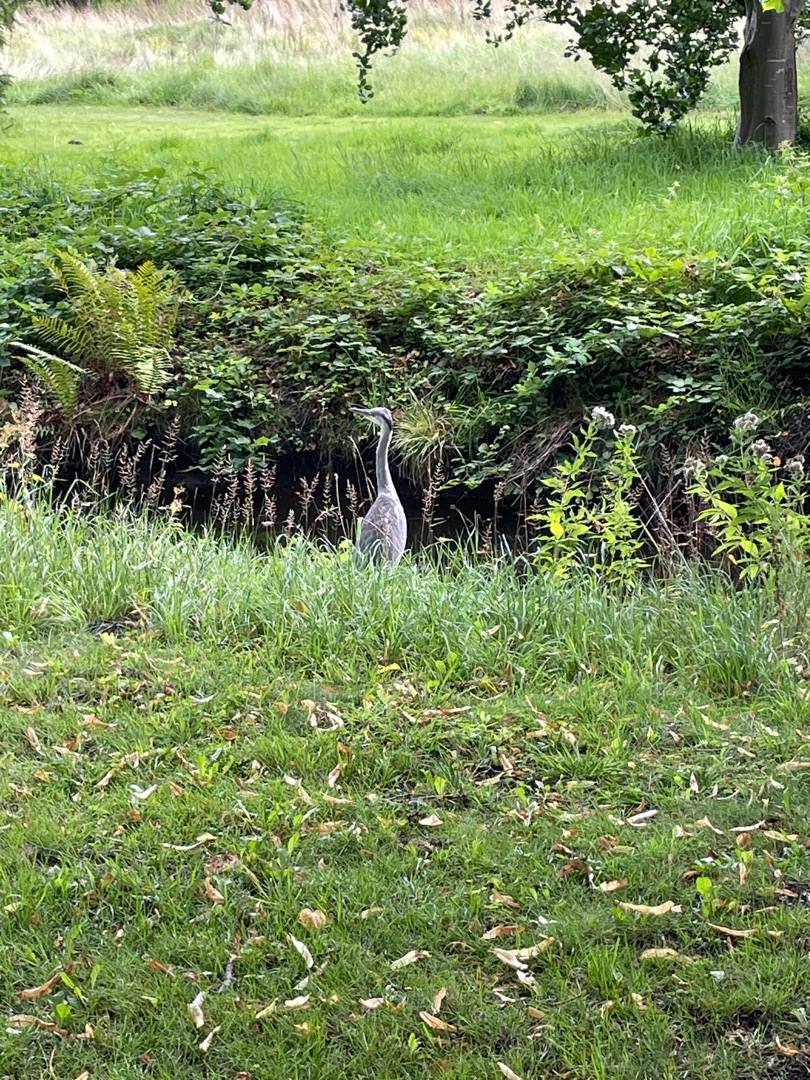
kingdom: Animalia
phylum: Chordata
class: Aves
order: Pelecaniformes
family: Ardeidae
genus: Ardea
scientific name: Ardea cinerea
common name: Fiskehejre
